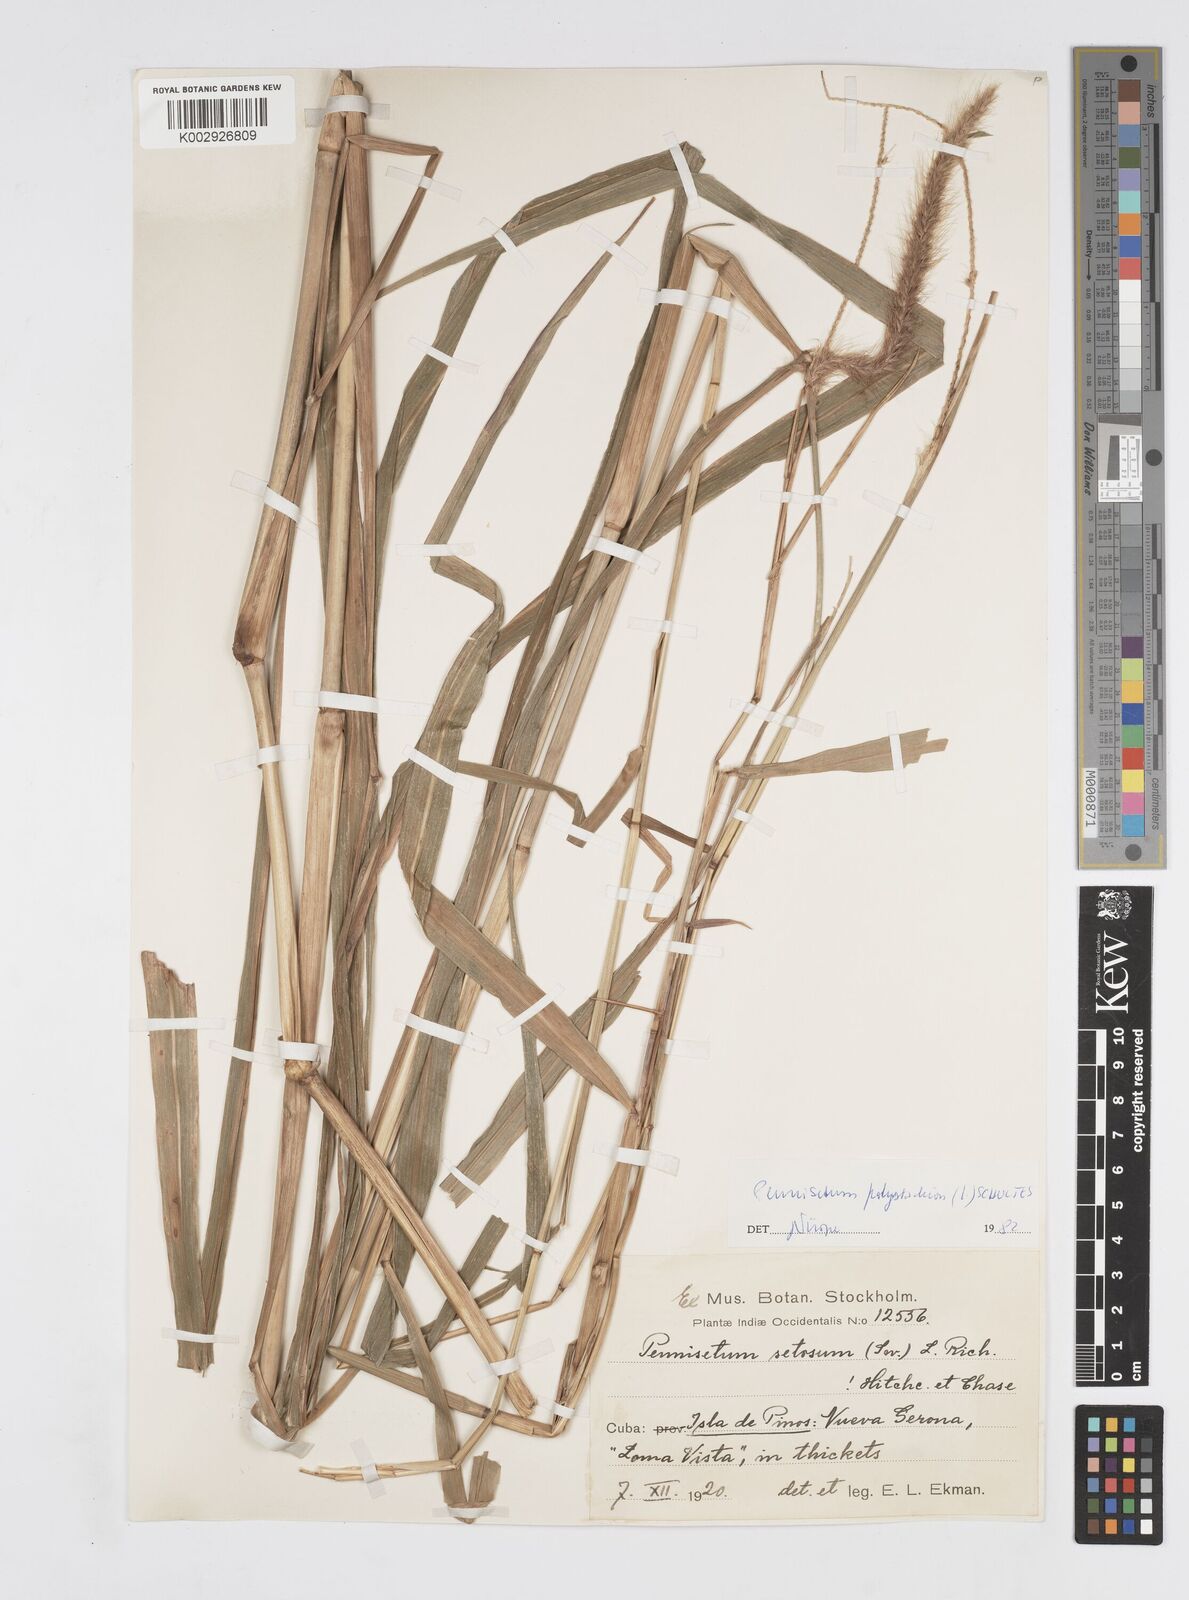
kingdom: Plantae
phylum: Tracheophyta
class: Liliopsida
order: Poales
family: Poaceae
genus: Setaria
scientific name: Setaria parviflora
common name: Knotroot bristle-grass
